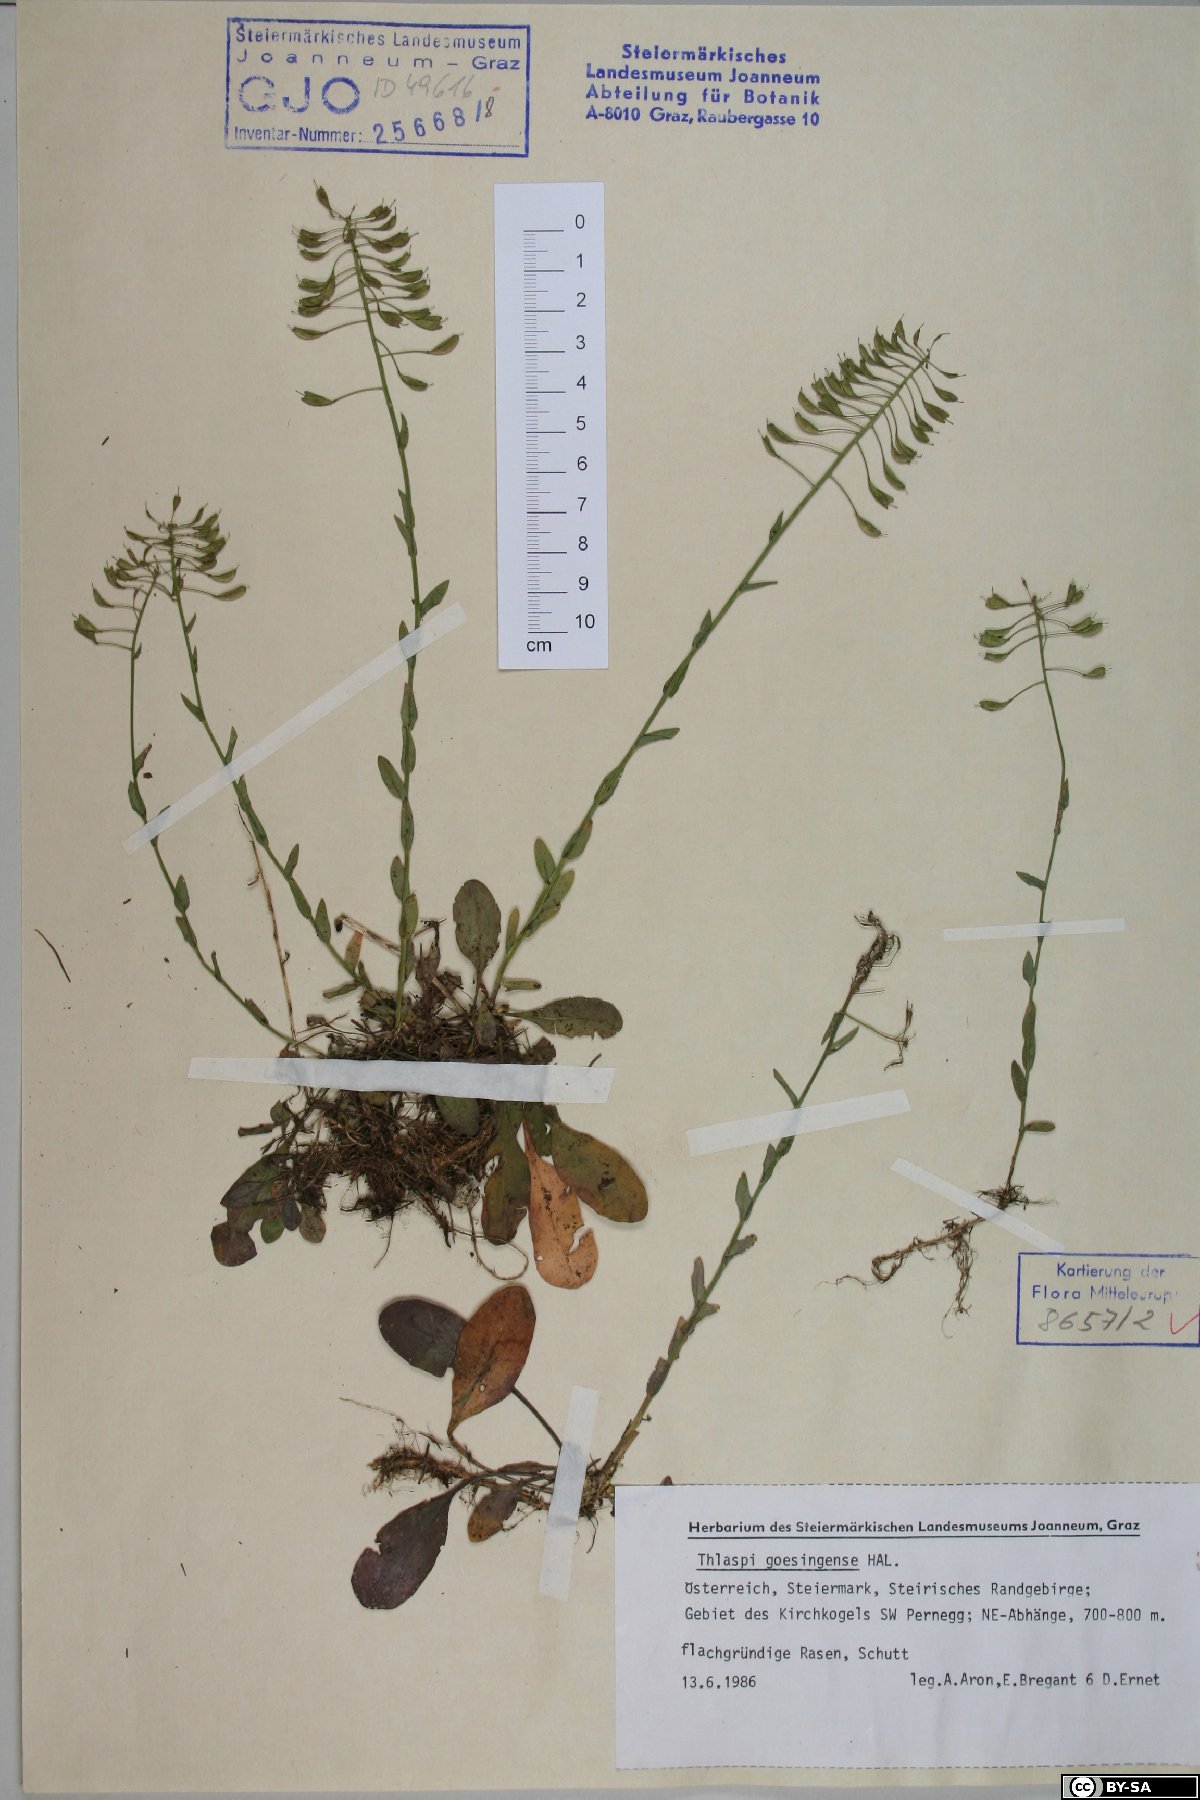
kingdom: Plantae
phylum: Tracheophyta
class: Magnoliopsida
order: Brassicales
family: Brassicaceae
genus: Noccaea
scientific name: Noccaea goesingensis
